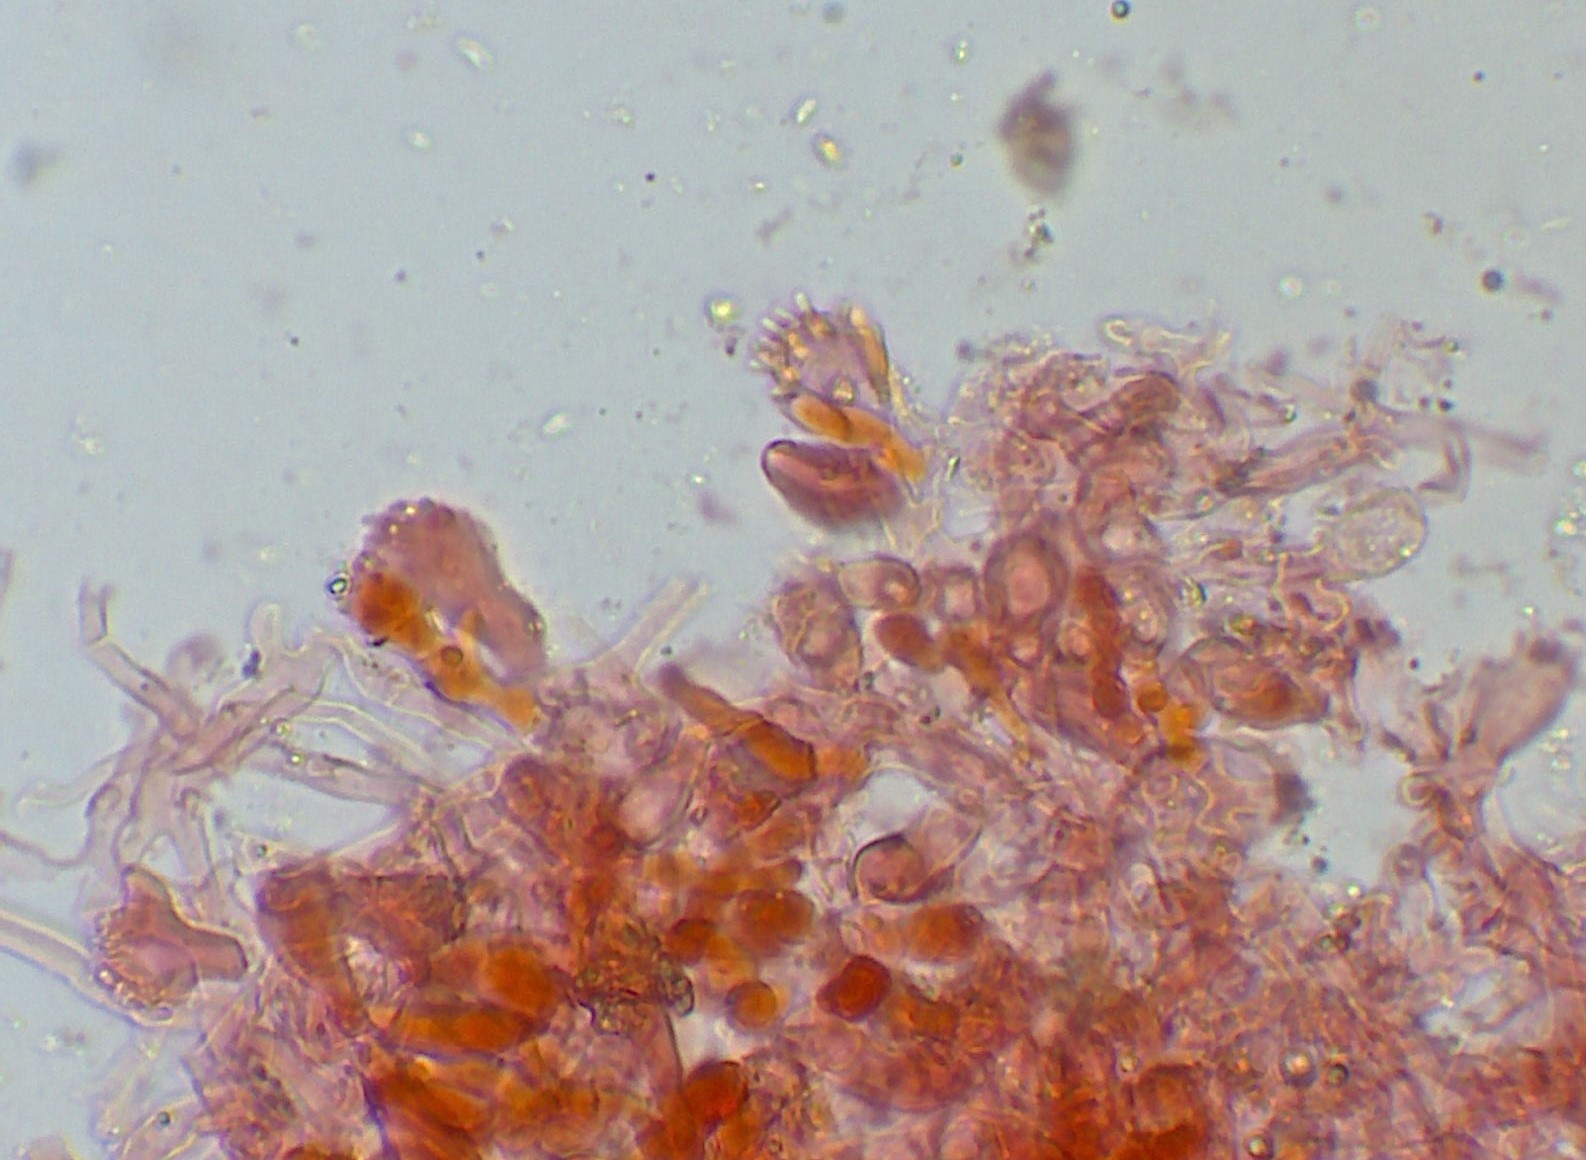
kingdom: Fungi
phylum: Basidiomycota
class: Agaricomycetes
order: Agaricales
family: Marasmiaceae
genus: Marasmius
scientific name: Marasmius epiphylloides
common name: vedbend-bruskhat
